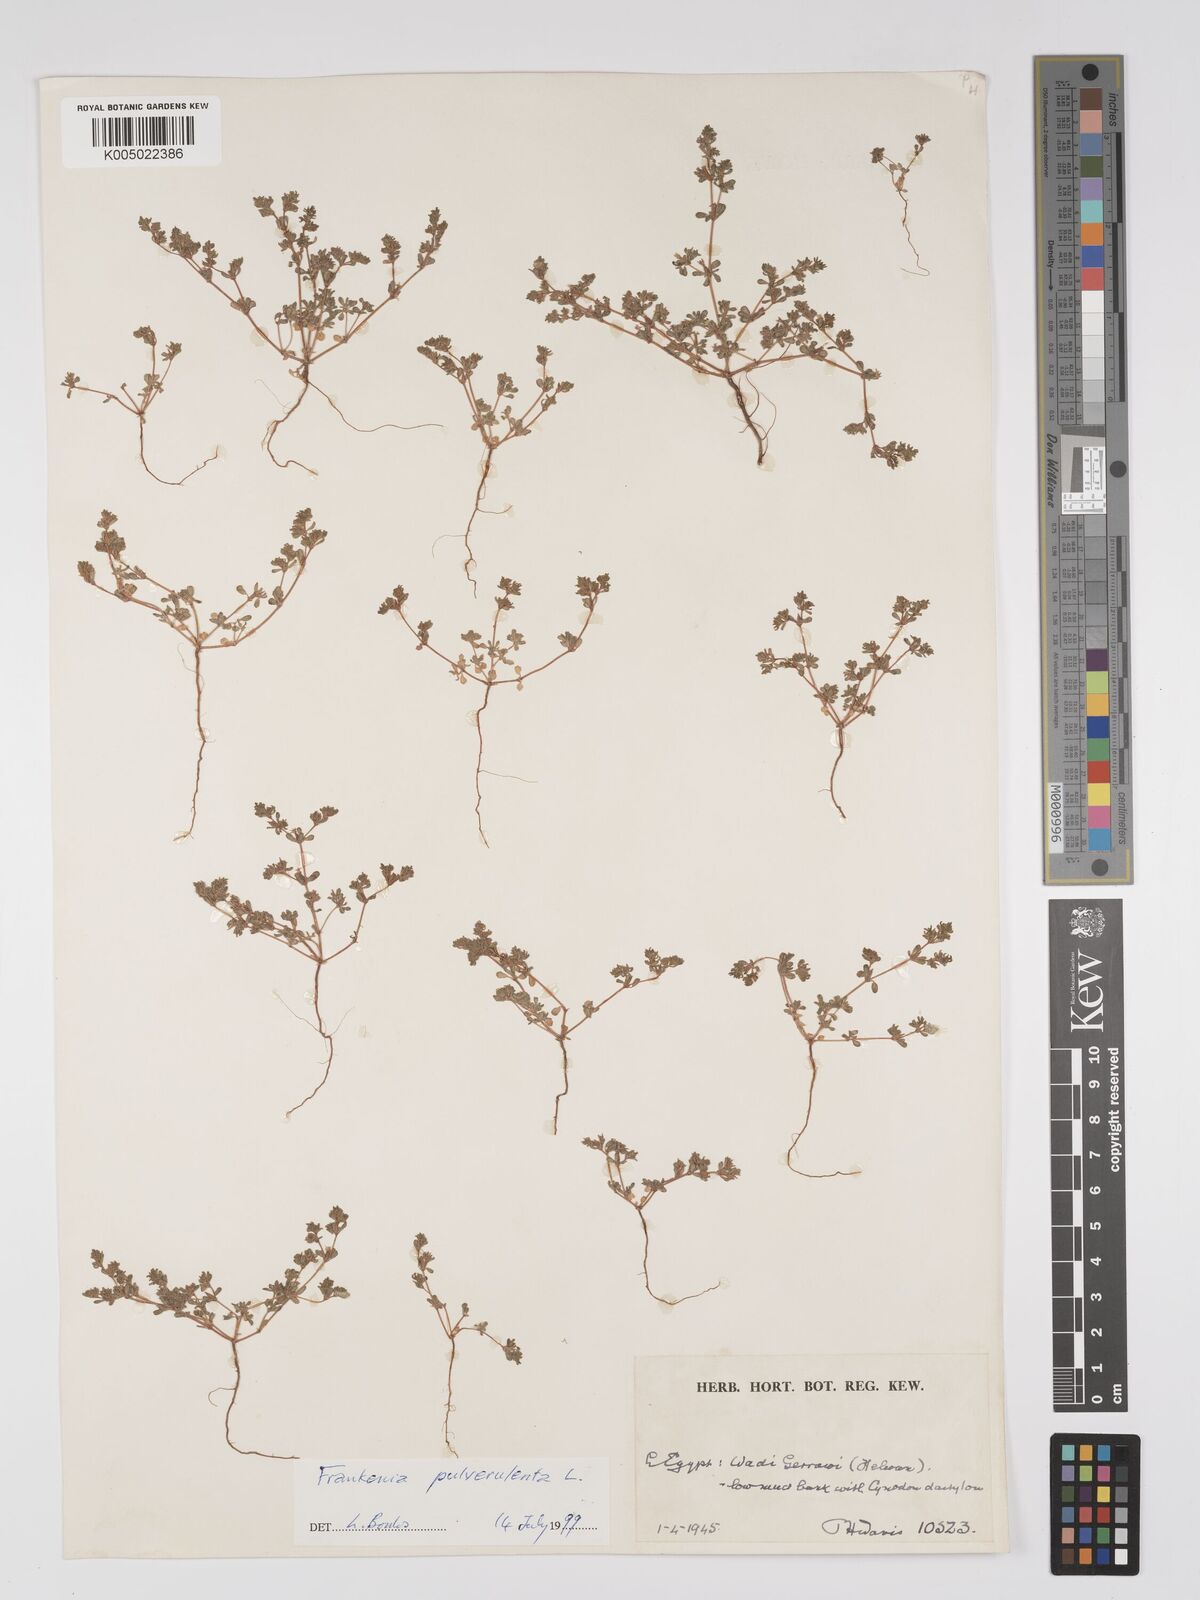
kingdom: Plantae
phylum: Tracheophyta
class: Magnoliopsida
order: Caryophyllales
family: Frankeniaceae
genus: Frankenia
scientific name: Frankenia pulverulenta
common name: European seaheath
